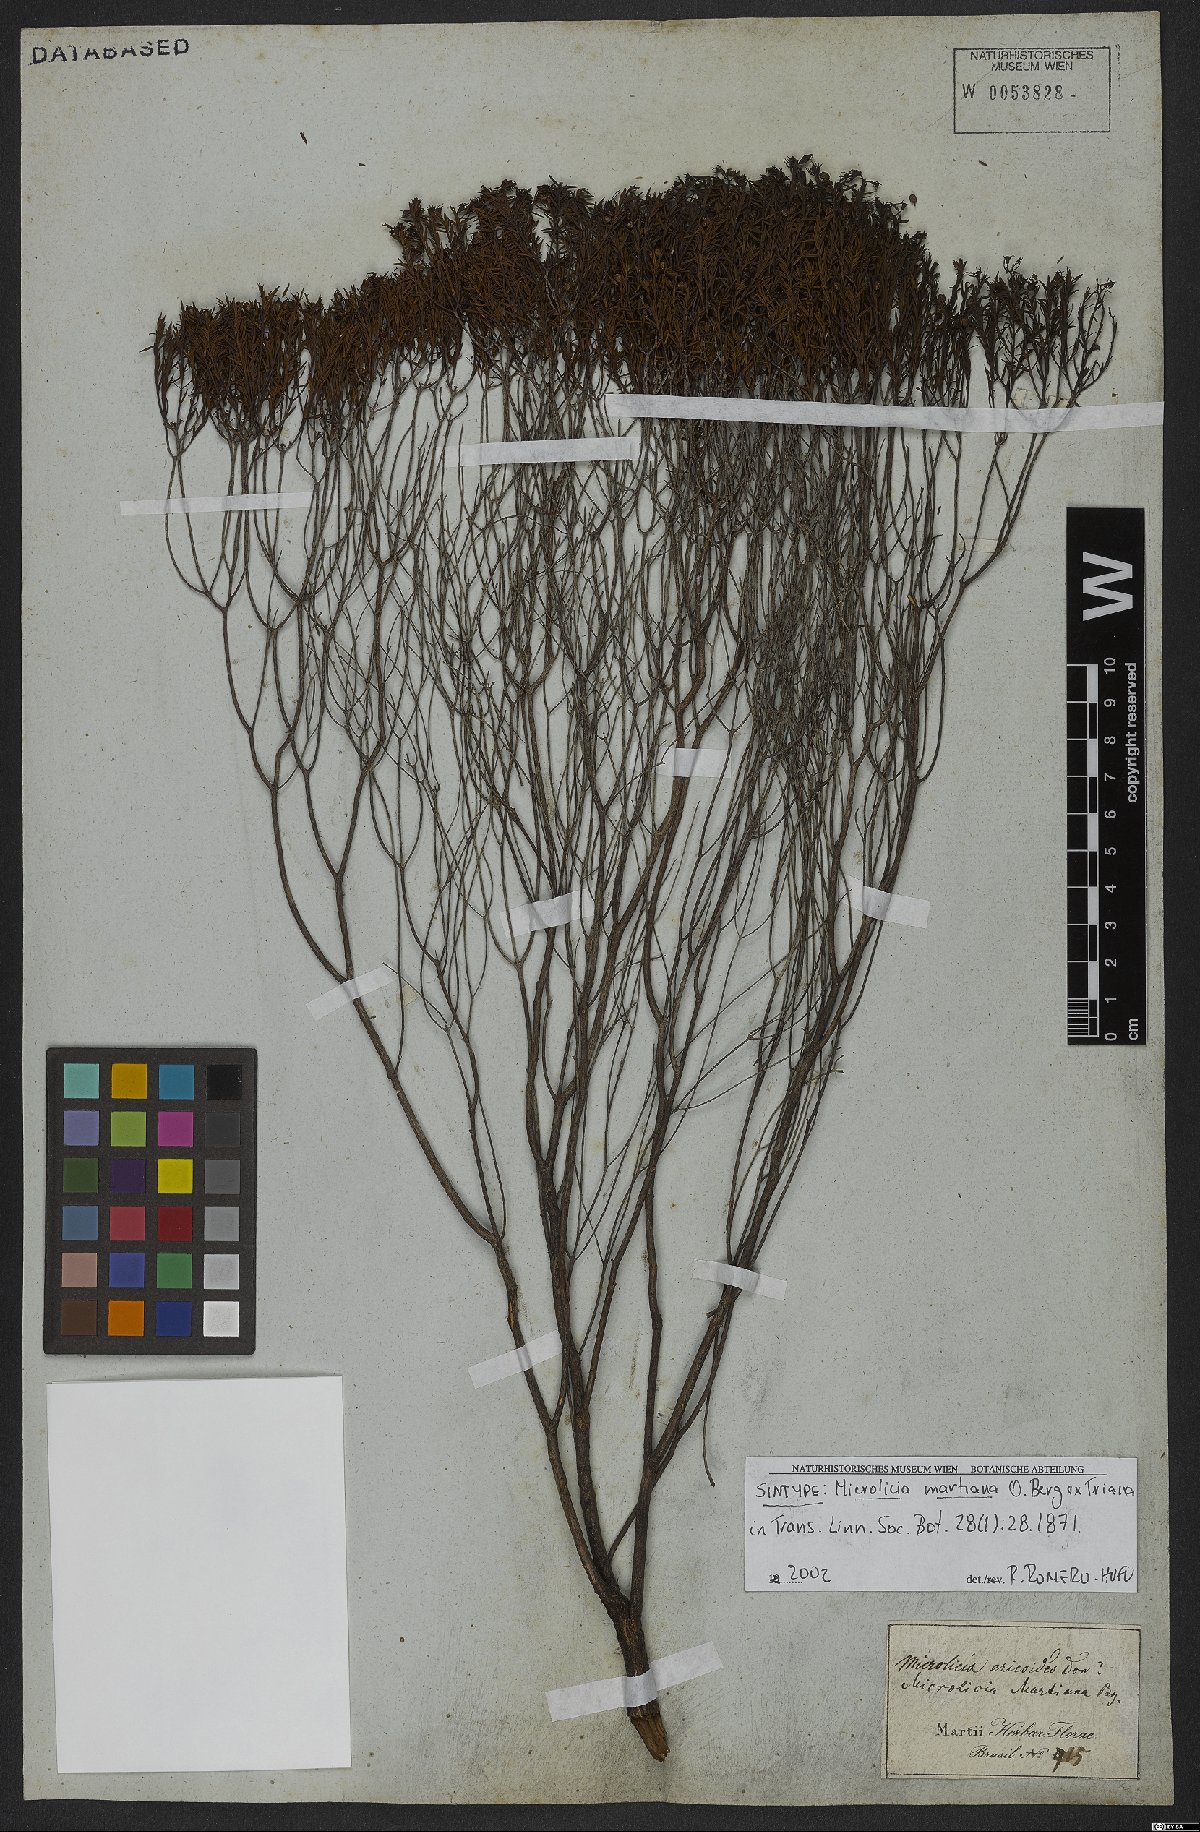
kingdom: Plantae
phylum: Tracheophyta
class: Magnoliopsida
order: Myrtales
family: Melastomataceae
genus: Microlicia
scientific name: Microlicia martiana
